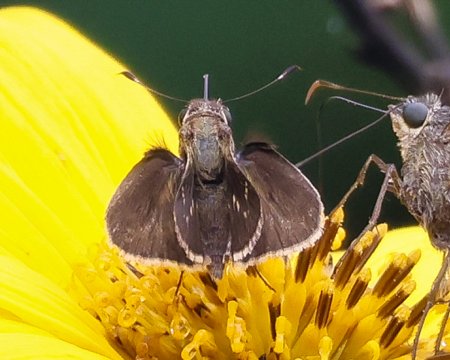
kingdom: Animalia
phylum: Arthropoda
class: Insecta
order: Lepidoptera
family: Hesperiidae
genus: Pompeius
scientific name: Pompeius pompeius
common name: Pompeius Skipper
